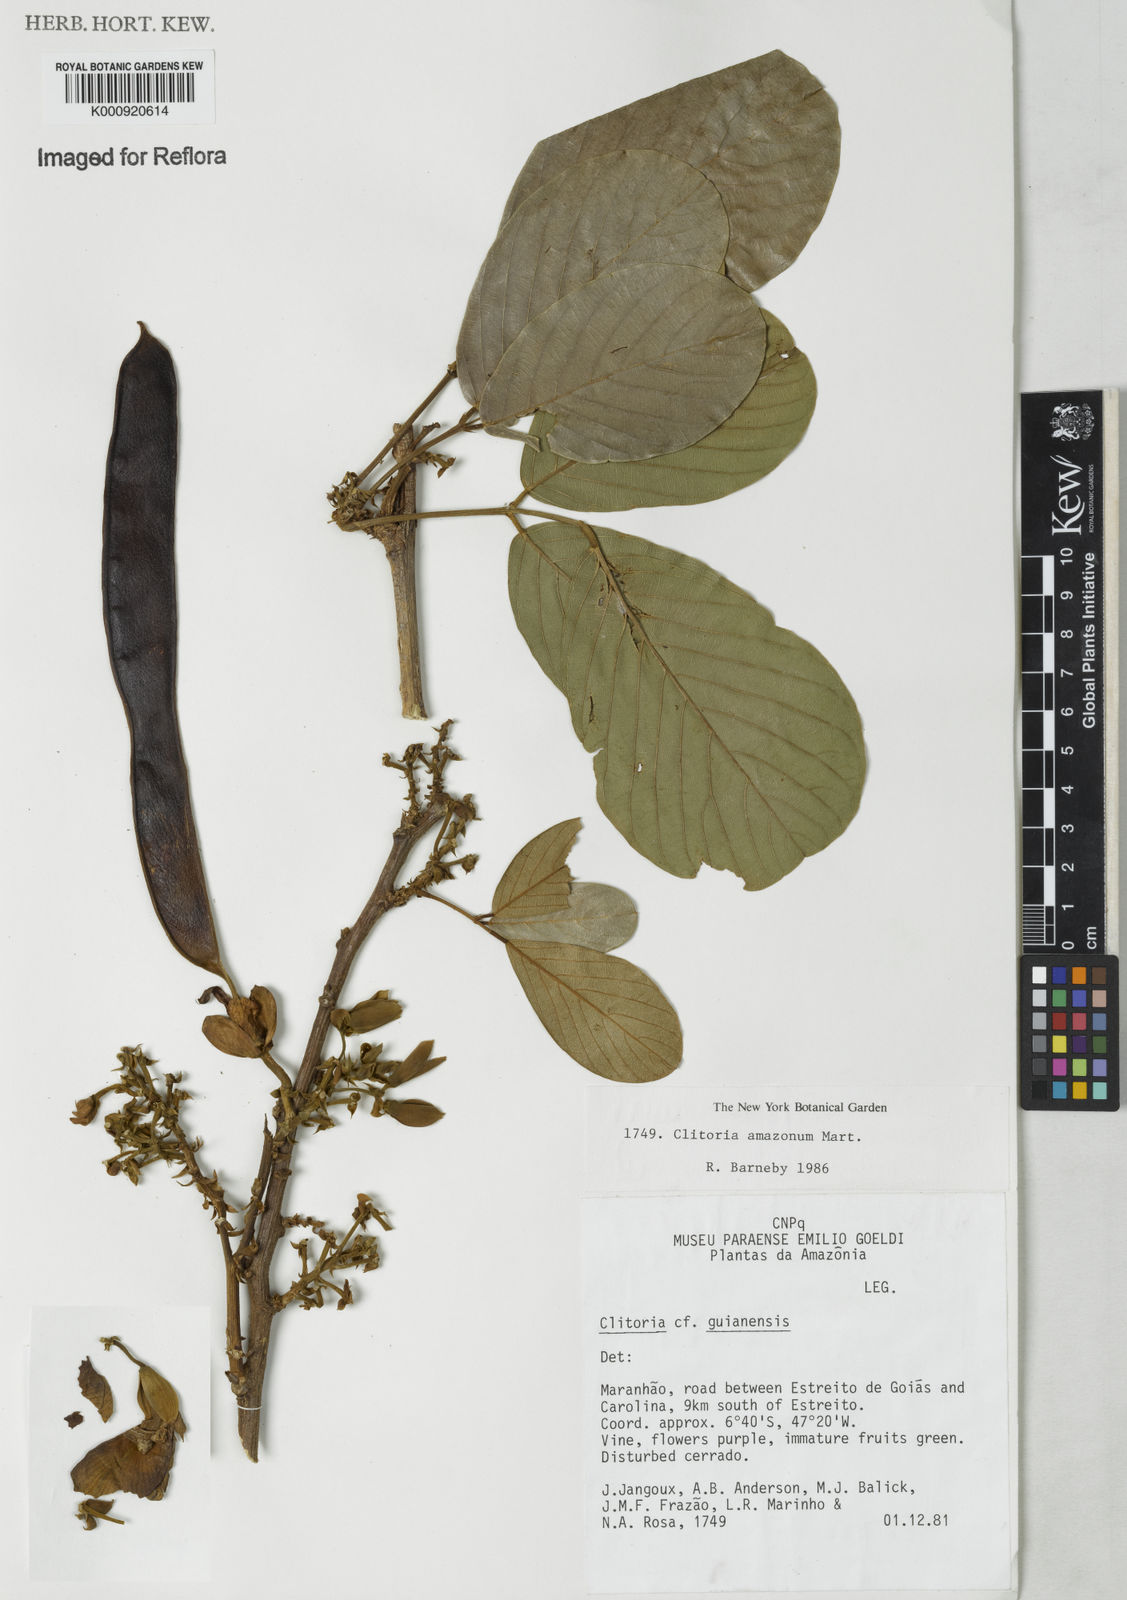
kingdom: Plantae
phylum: Tracheophyta
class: Magnoliopsida
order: Fabales
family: Fabaceae
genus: Clitoria
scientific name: Clitoria amazonum
